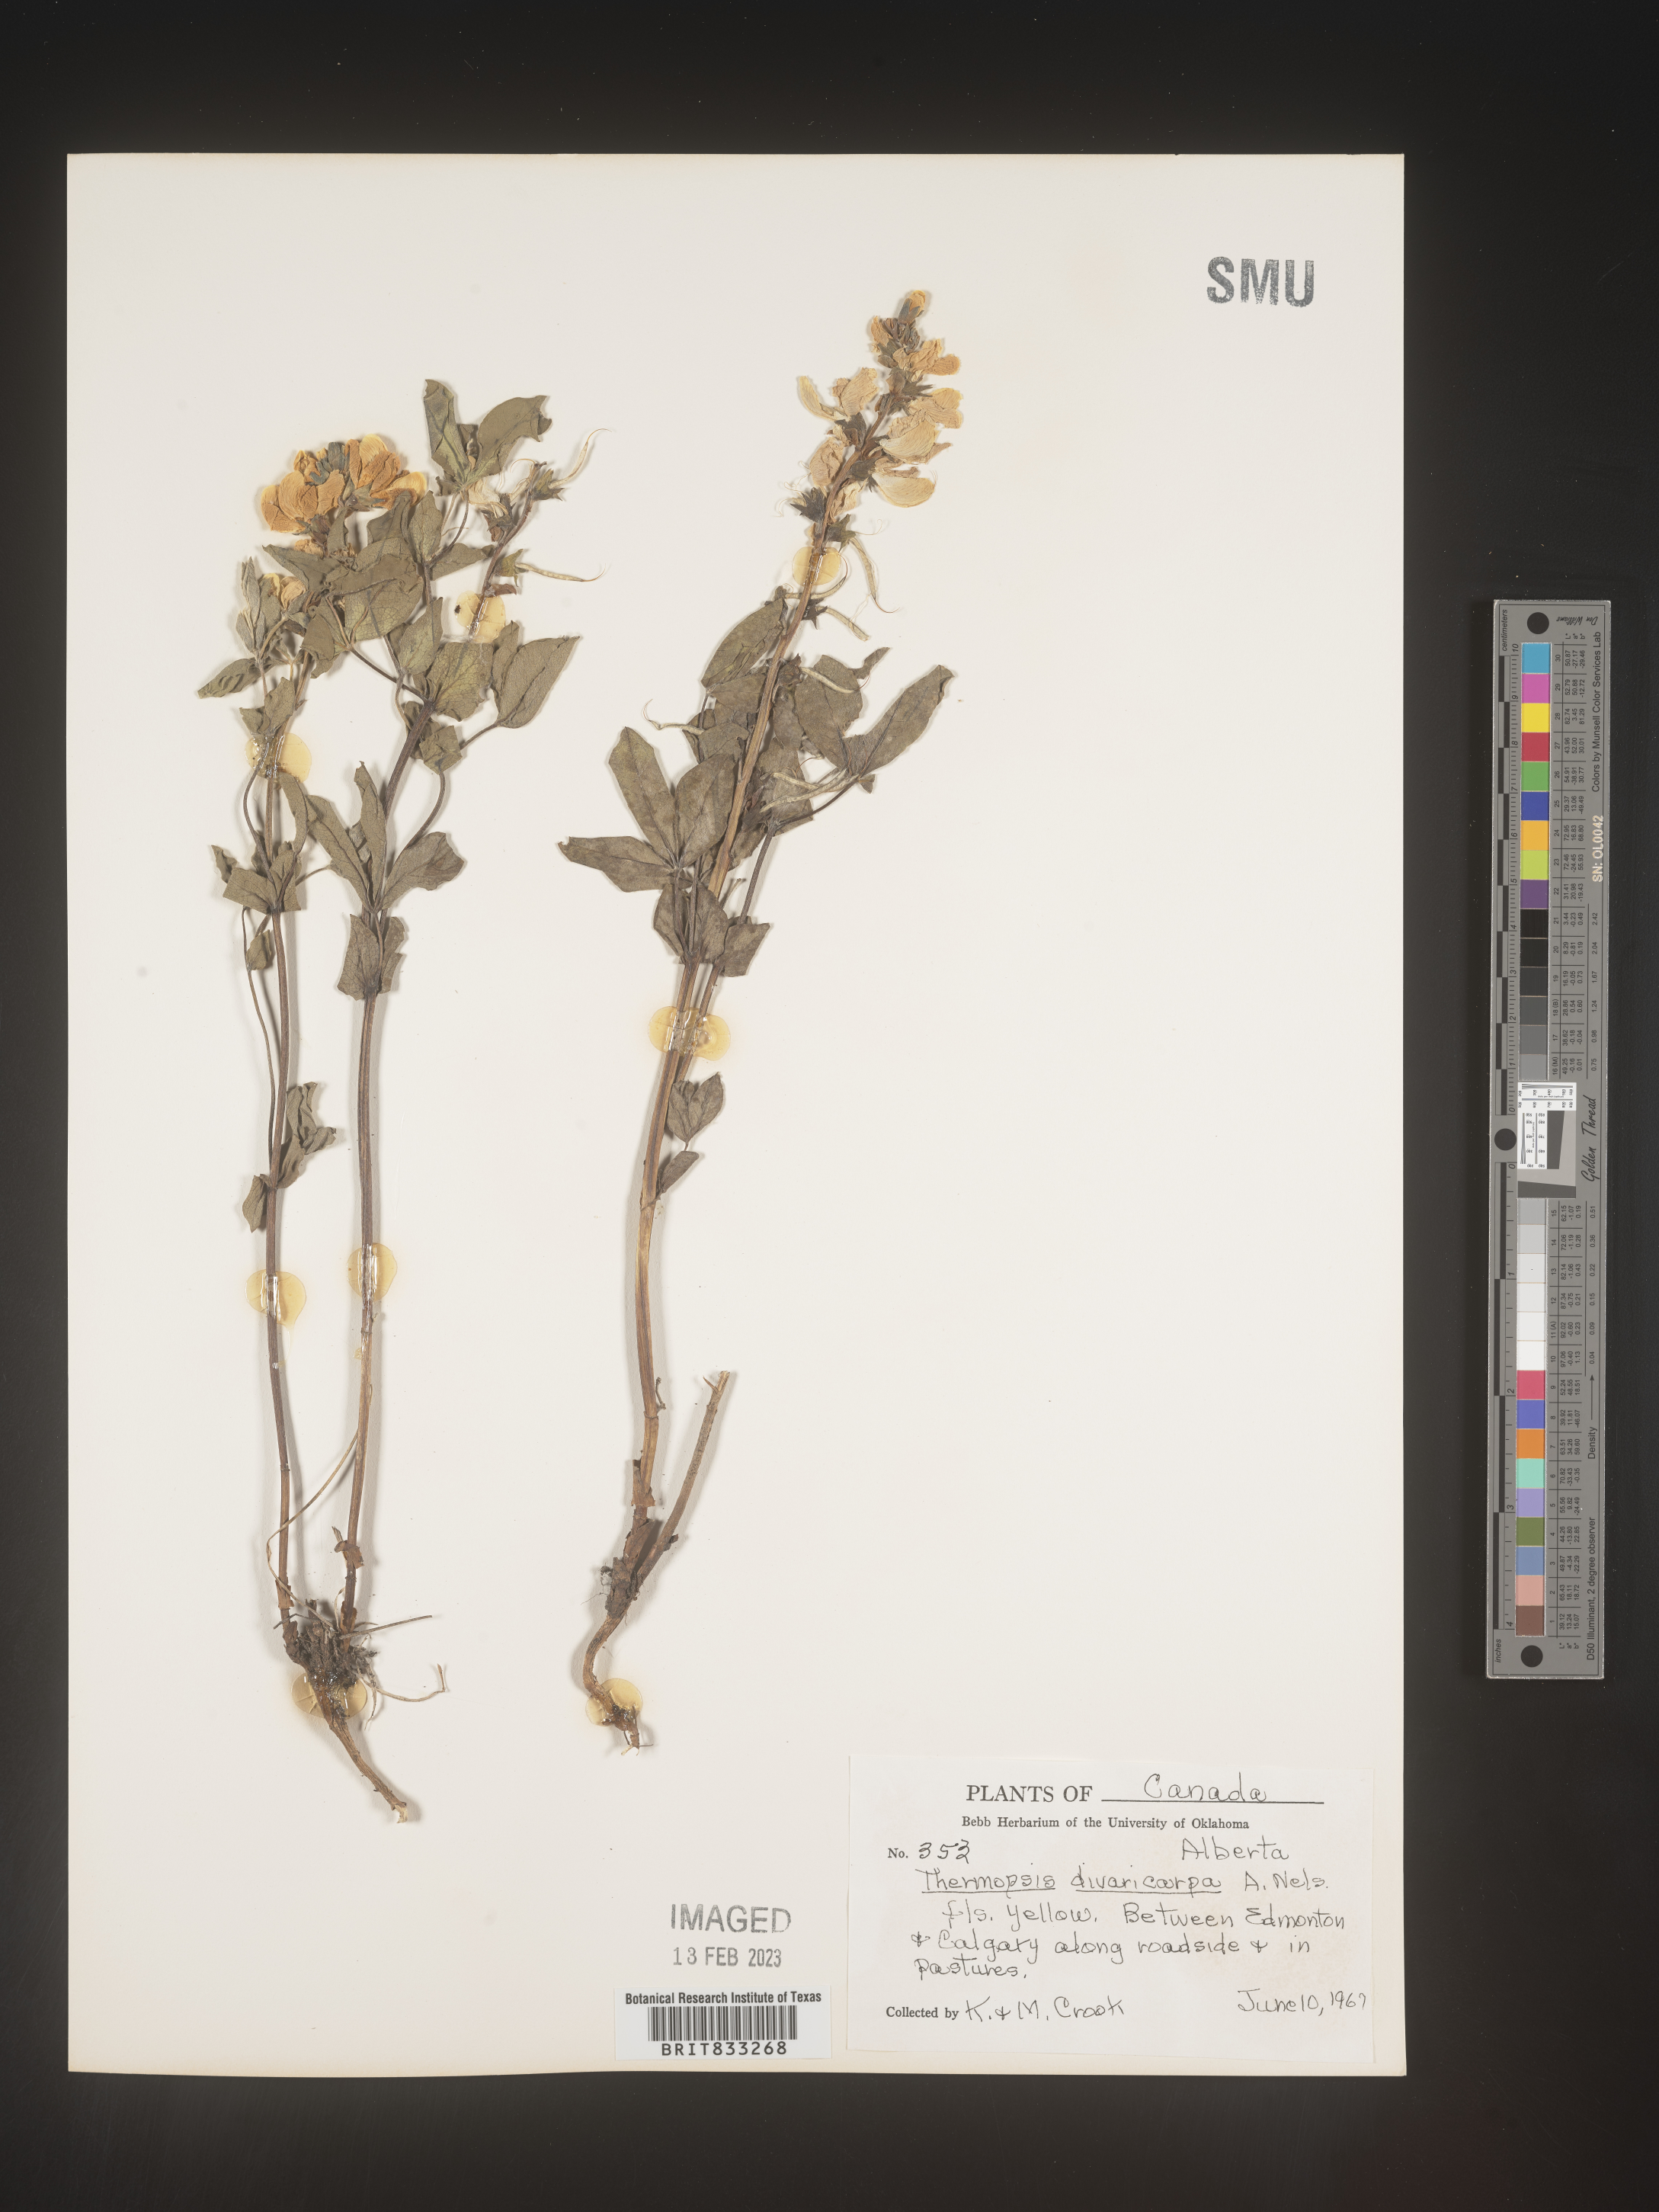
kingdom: Plantae
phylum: Tracheophyta
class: Magnoliopsida
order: Fabales
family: Fabaceae
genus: Thermopsis
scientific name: Thermopsis rhombifolia
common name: Circle-pod-pea
